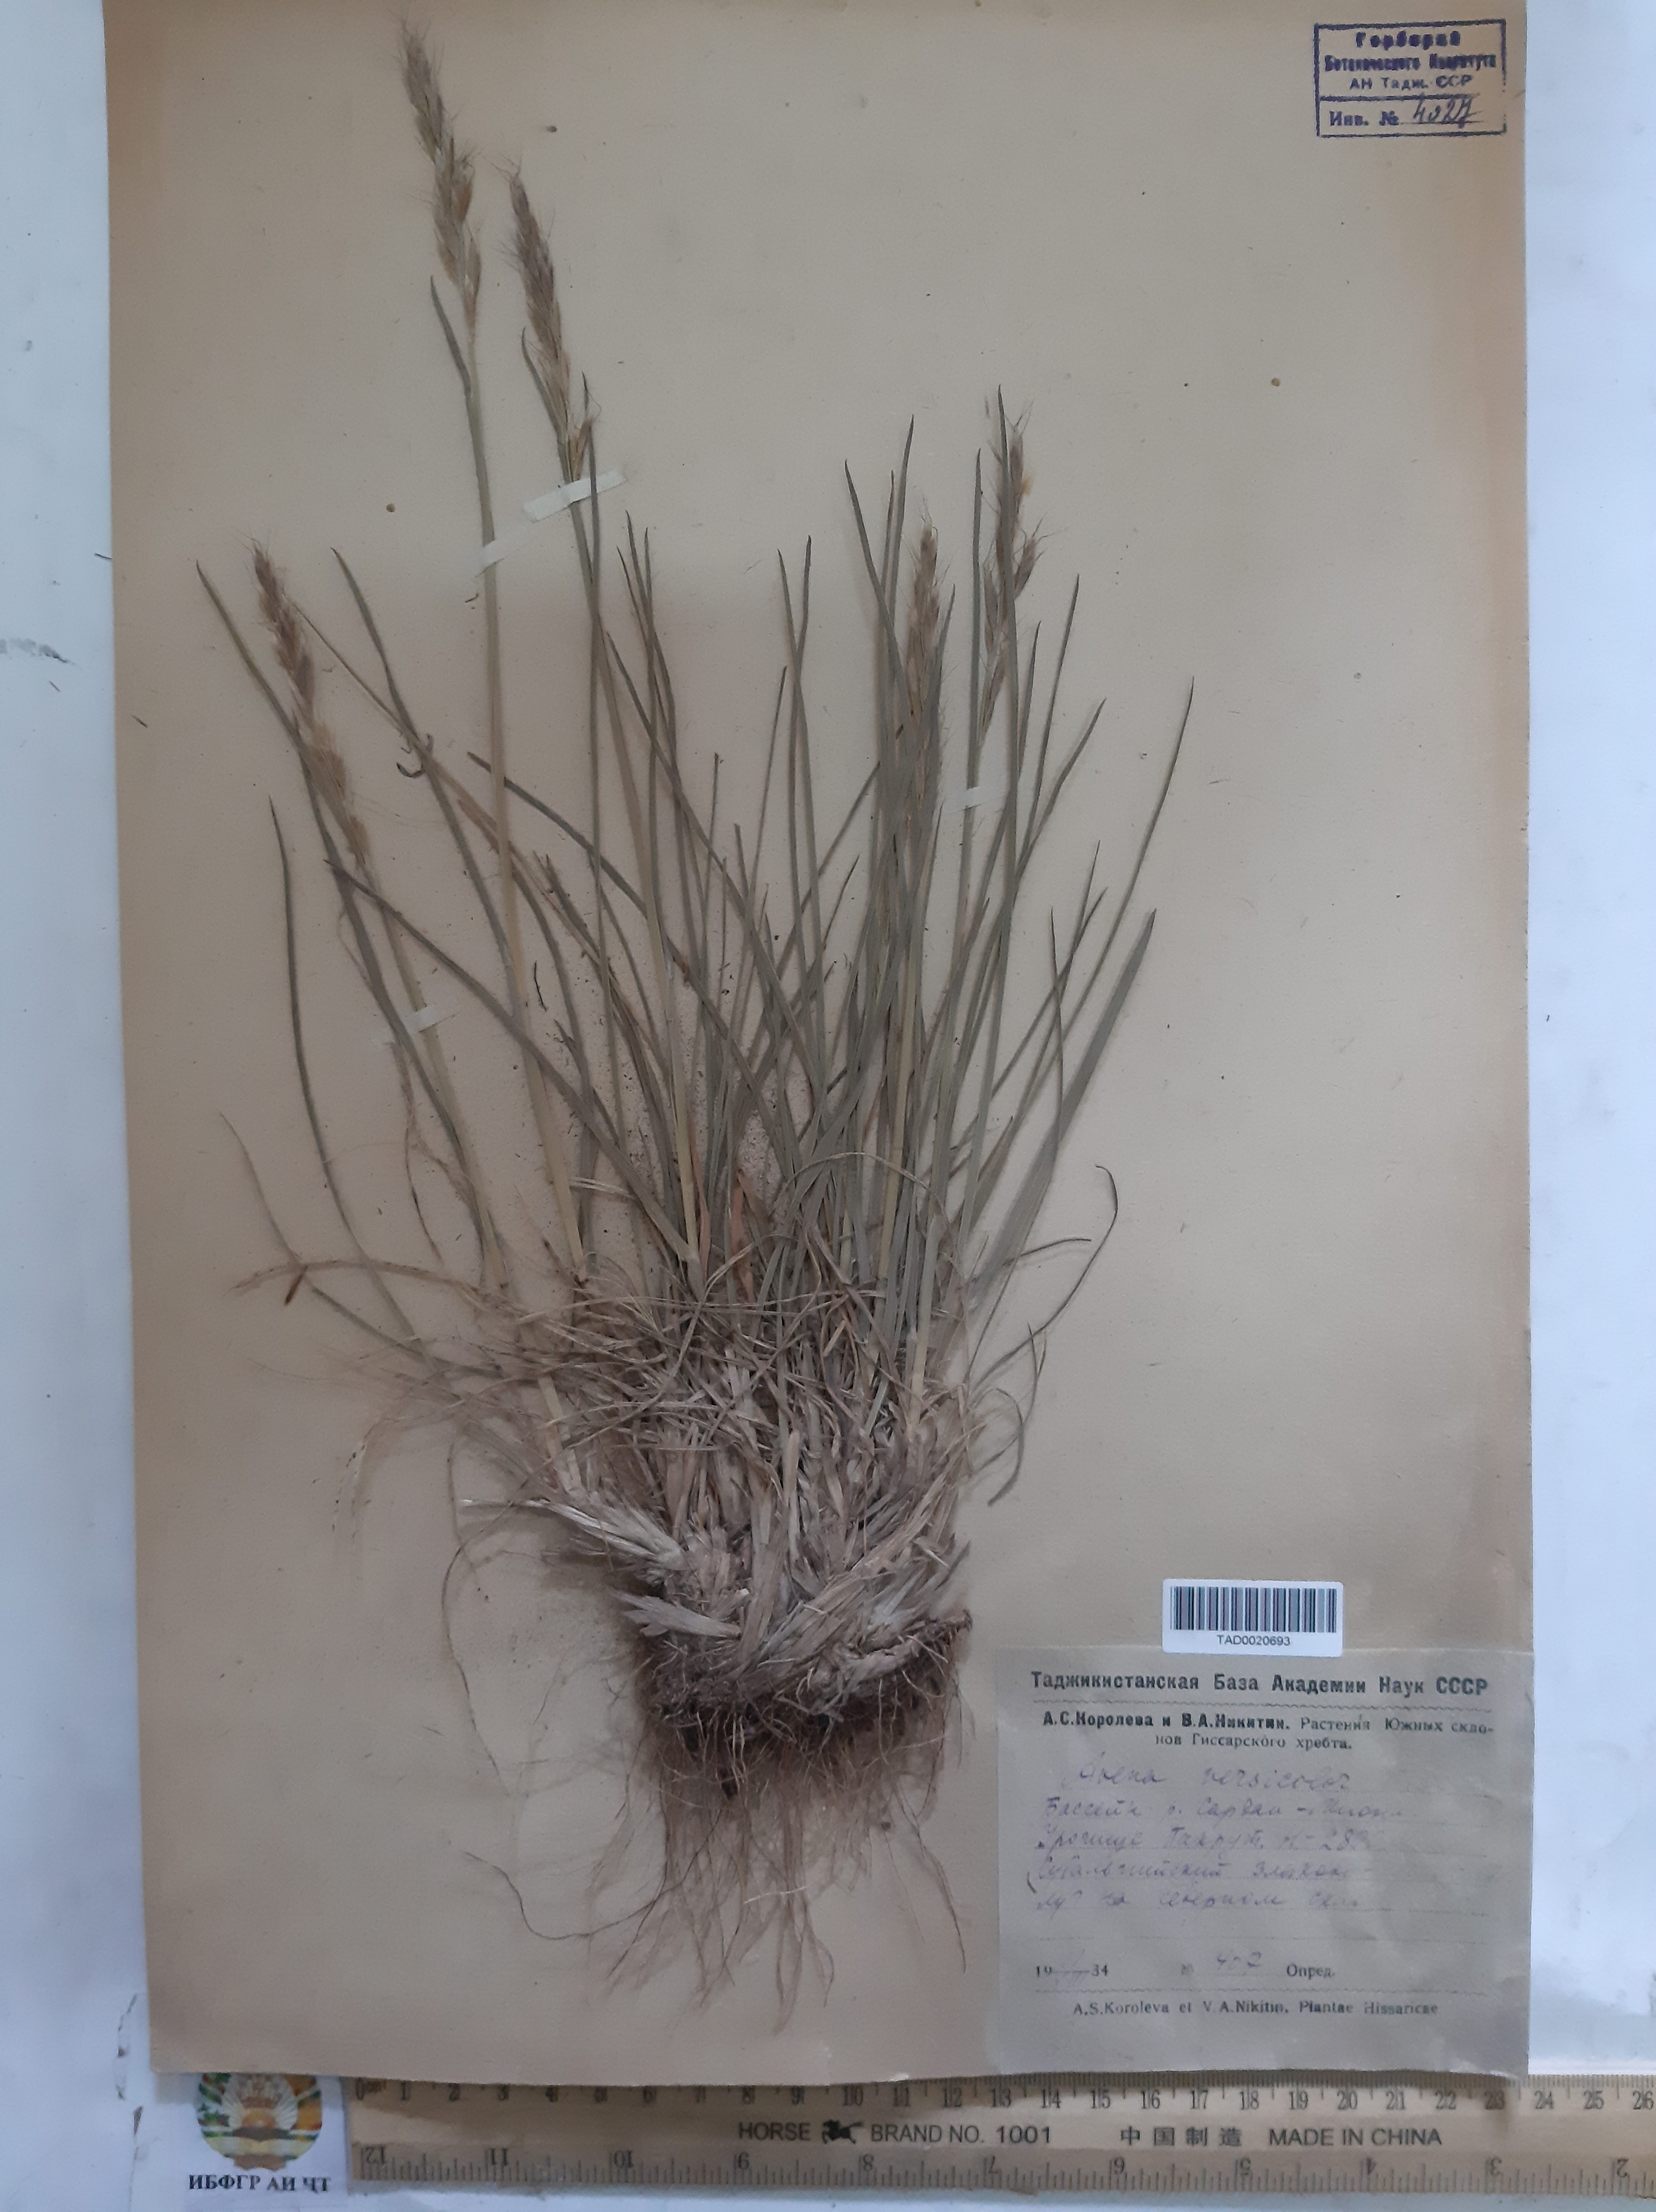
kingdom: Plantae
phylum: Tracheophyta
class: Liliopsida
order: Poales
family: Poaceae
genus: Avena
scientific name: Avena
